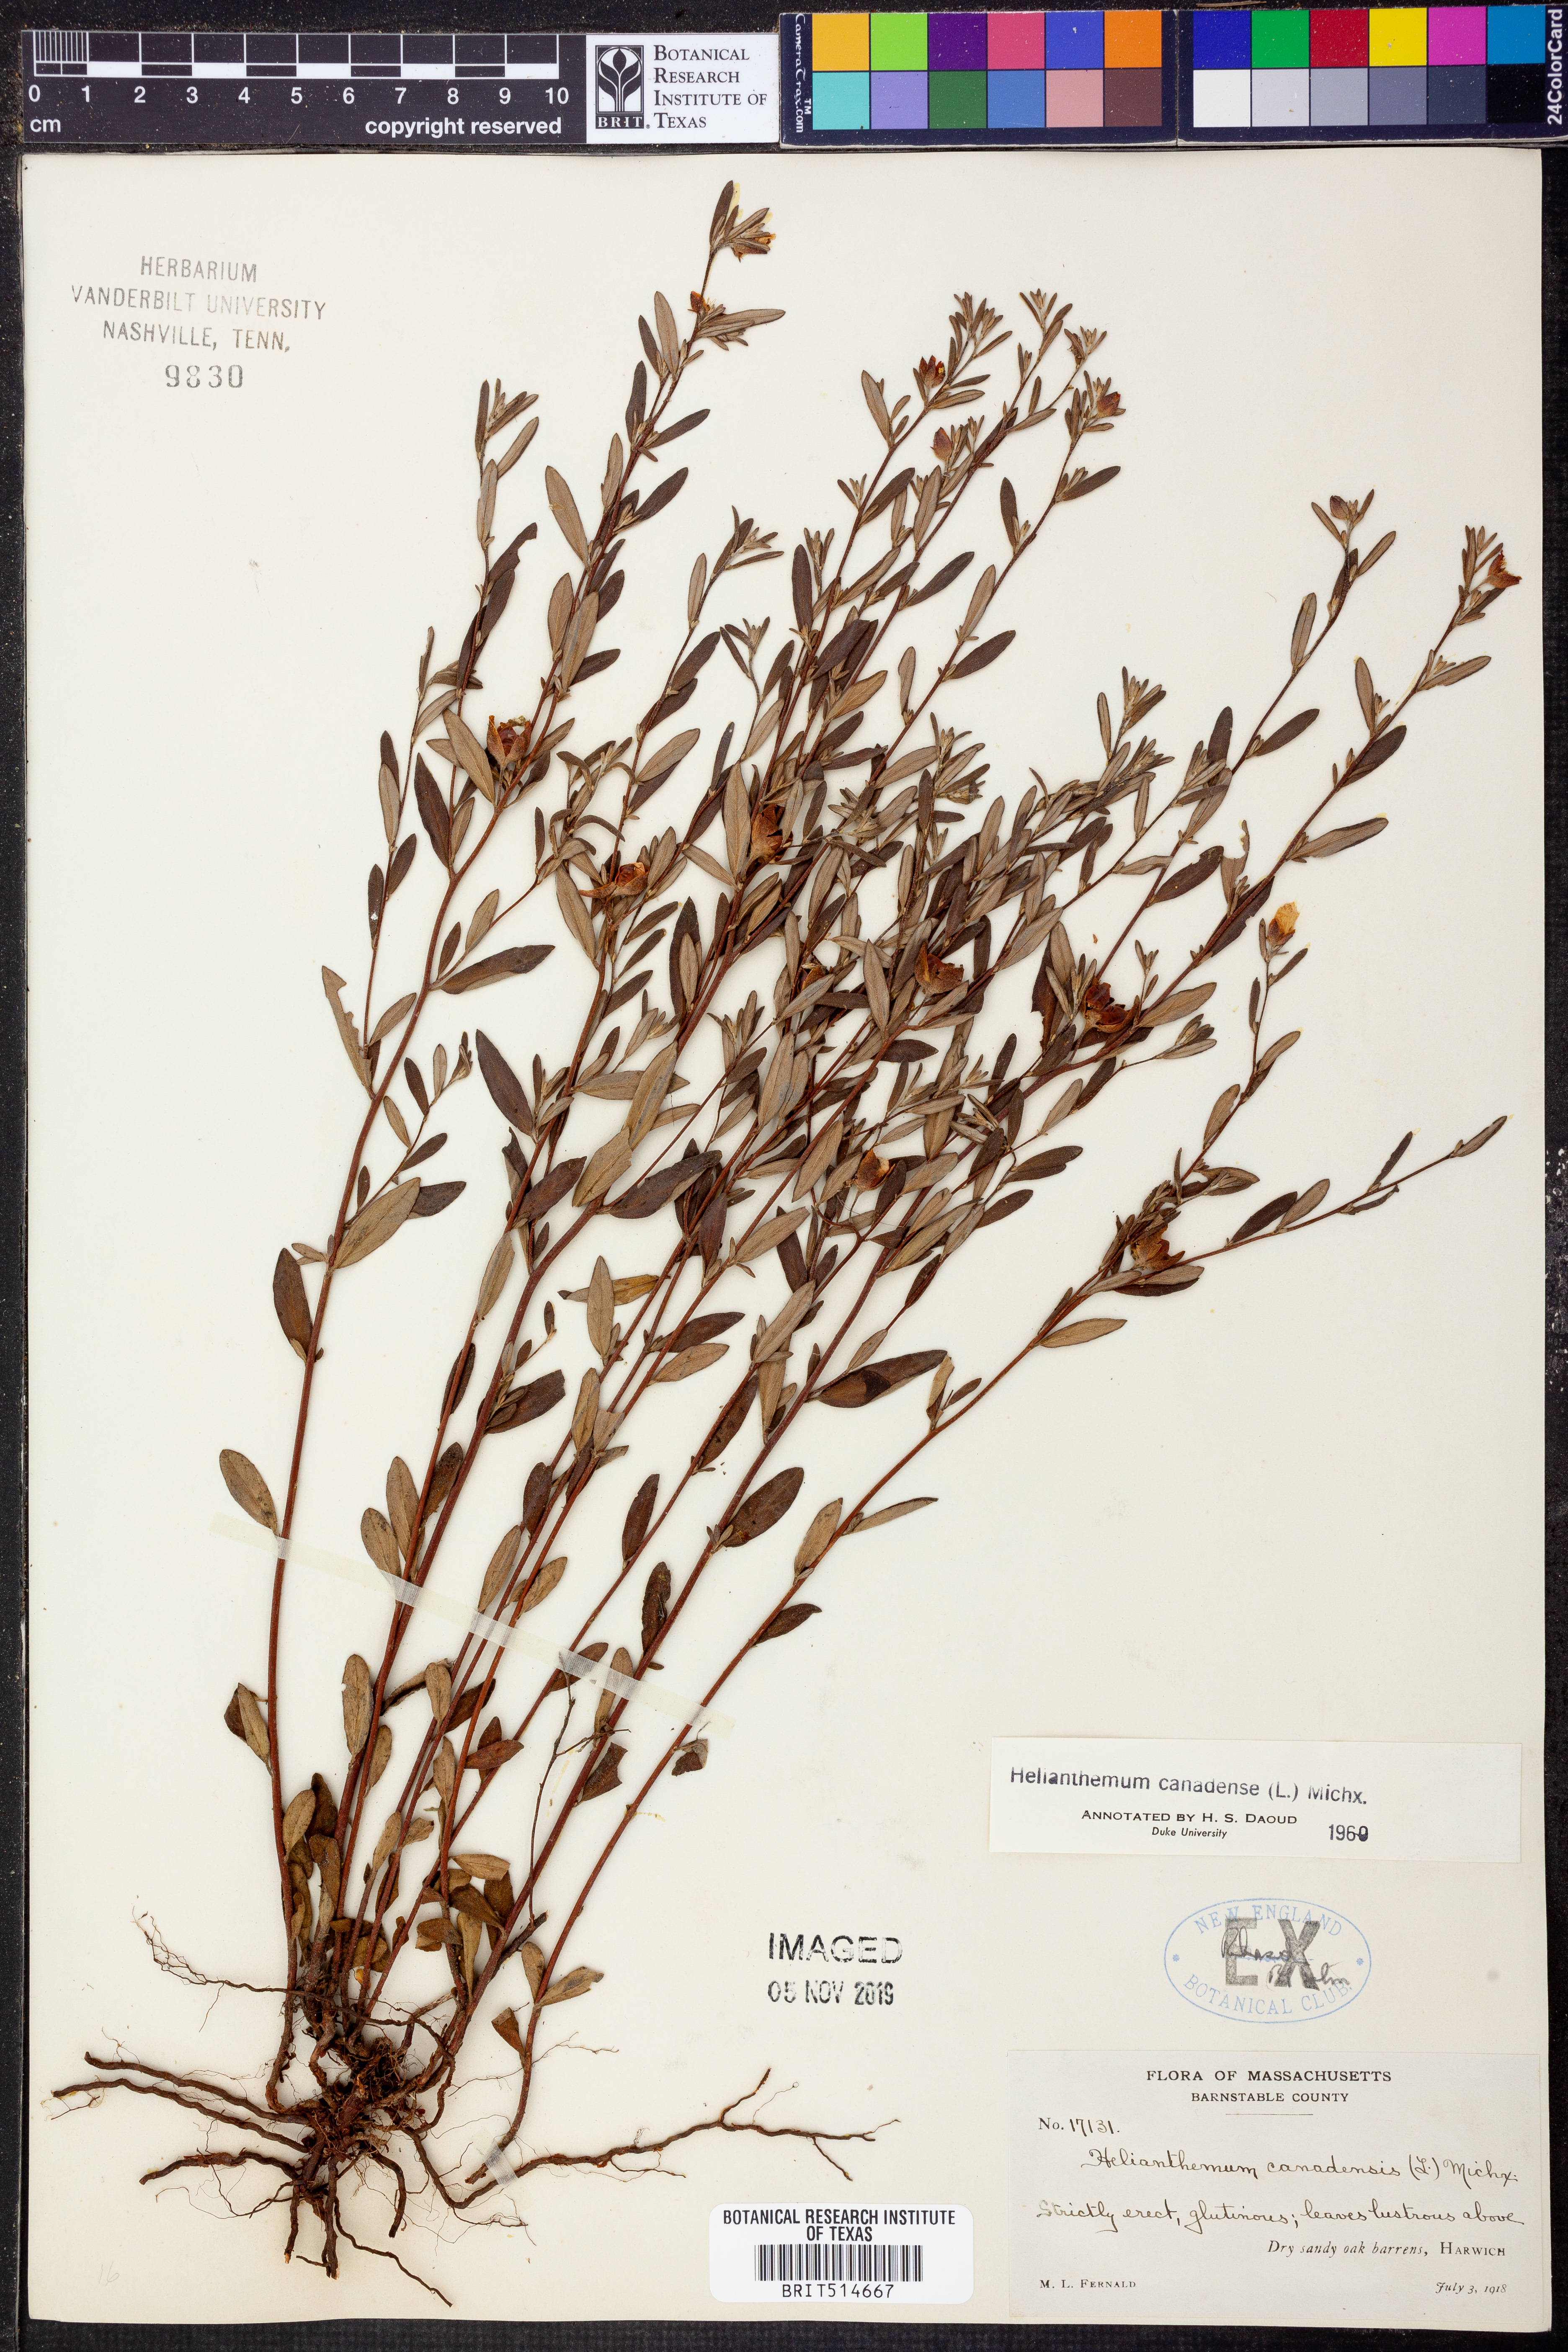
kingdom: Plantae
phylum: Tracheophyta
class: Magnoliopsida
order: Malvales
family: Cistaceae
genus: Crocanthemum
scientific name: Crocanthemum canadense
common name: Canada frostweed
